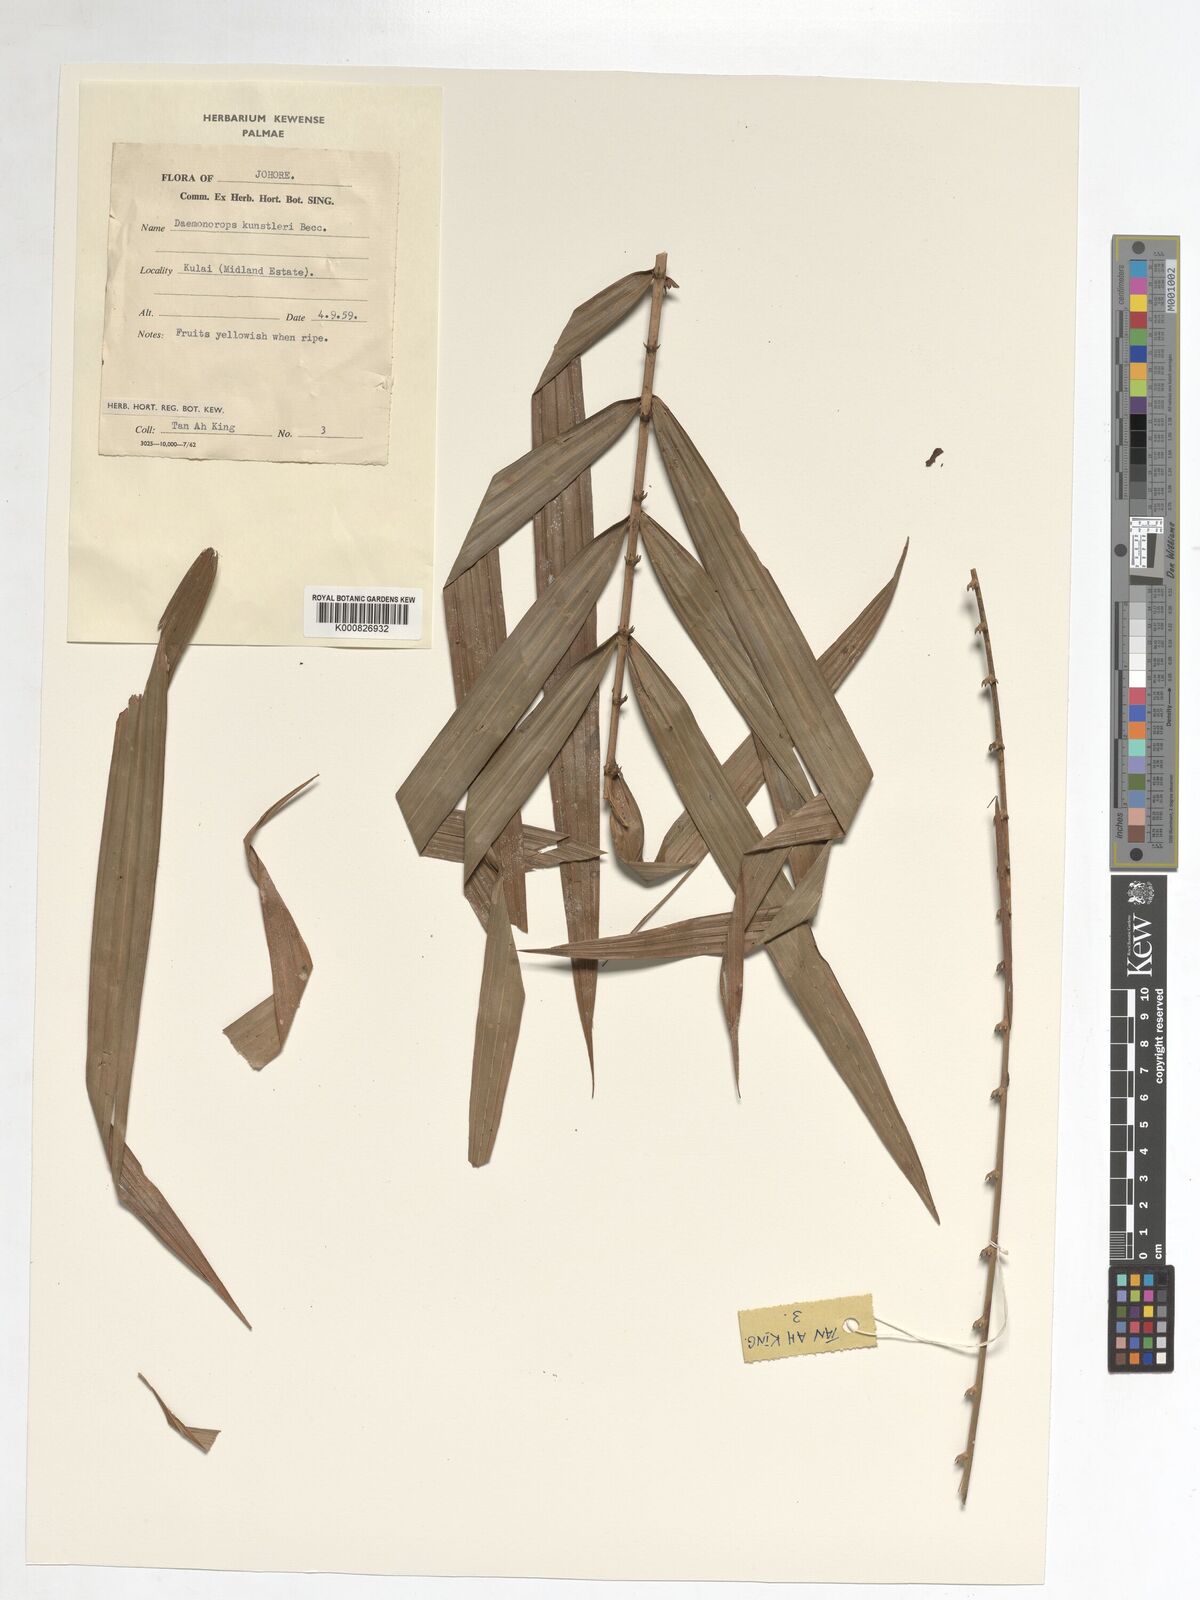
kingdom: Plantae
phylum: Tracheophyta
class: Liliopsida
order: Arecales
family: Arecaceae
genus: Calamus
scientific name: Calamus kunstleri
